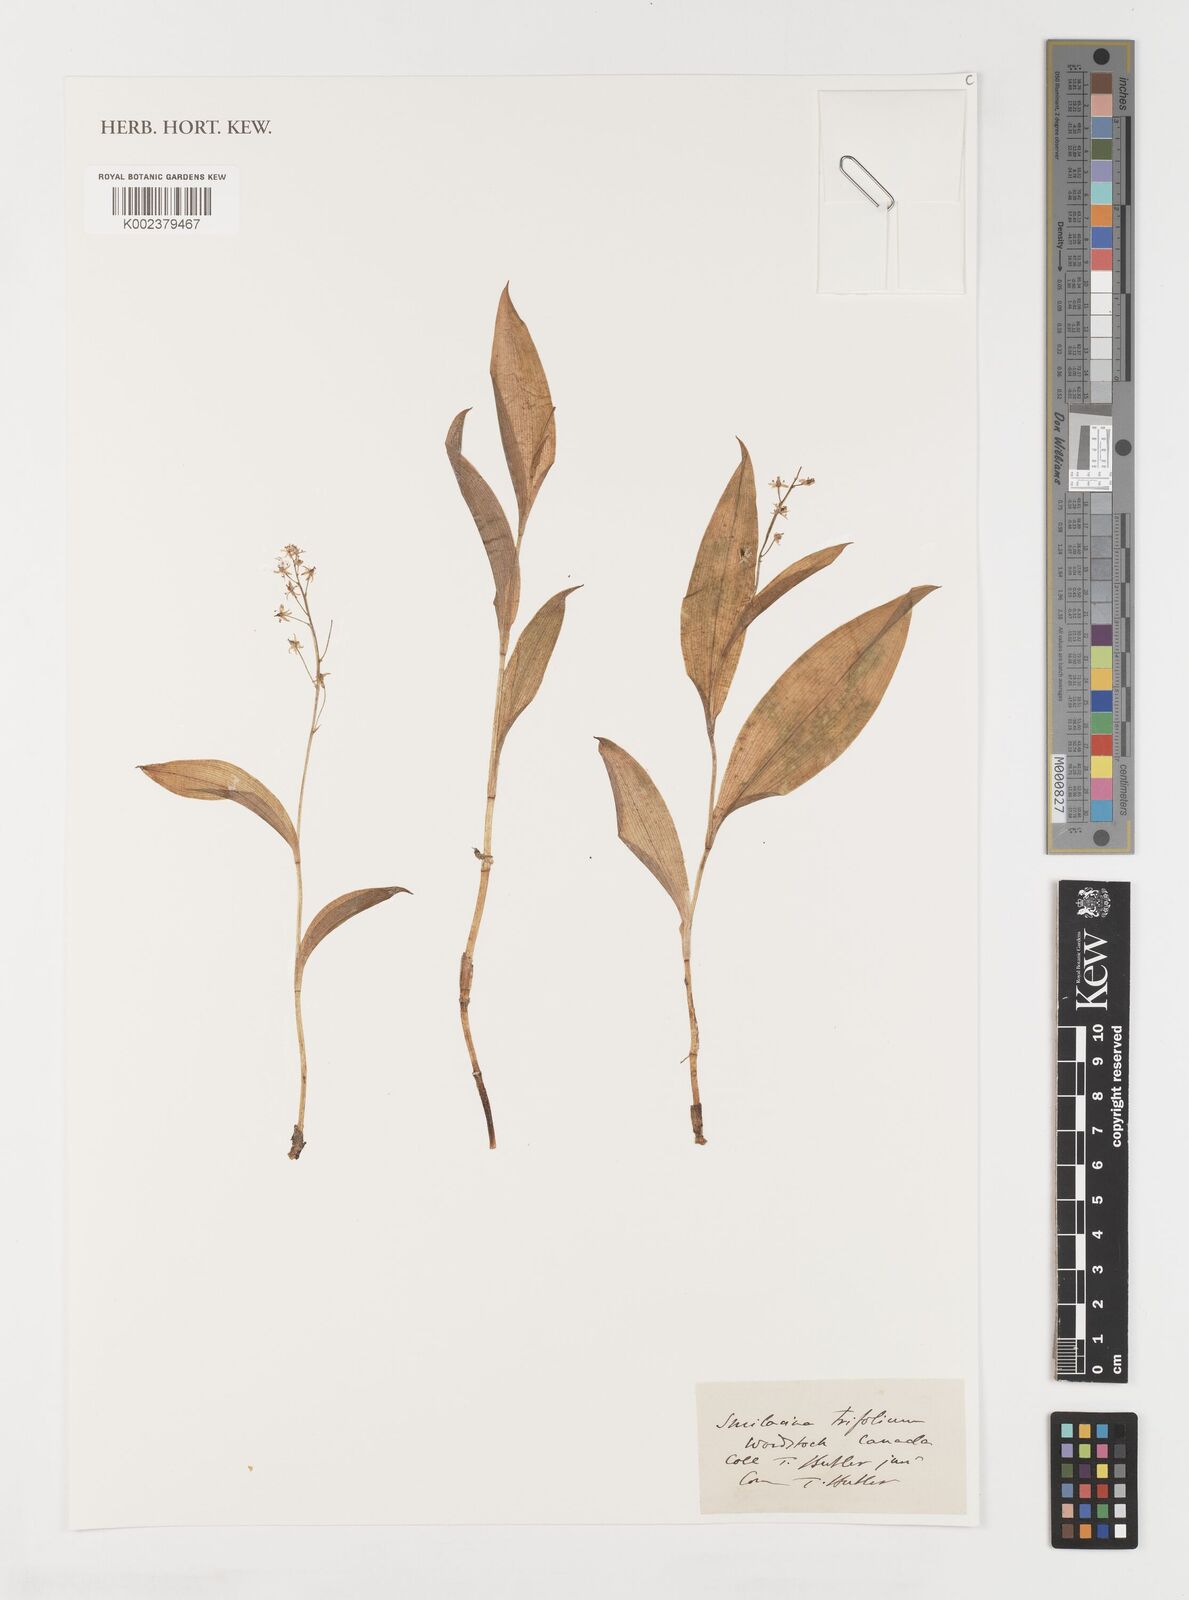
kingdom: Plantae
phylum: Tracheophyta
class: Liliopsida
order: Liliales
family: Smilacaceae
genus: Smilax
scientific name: Smilax
